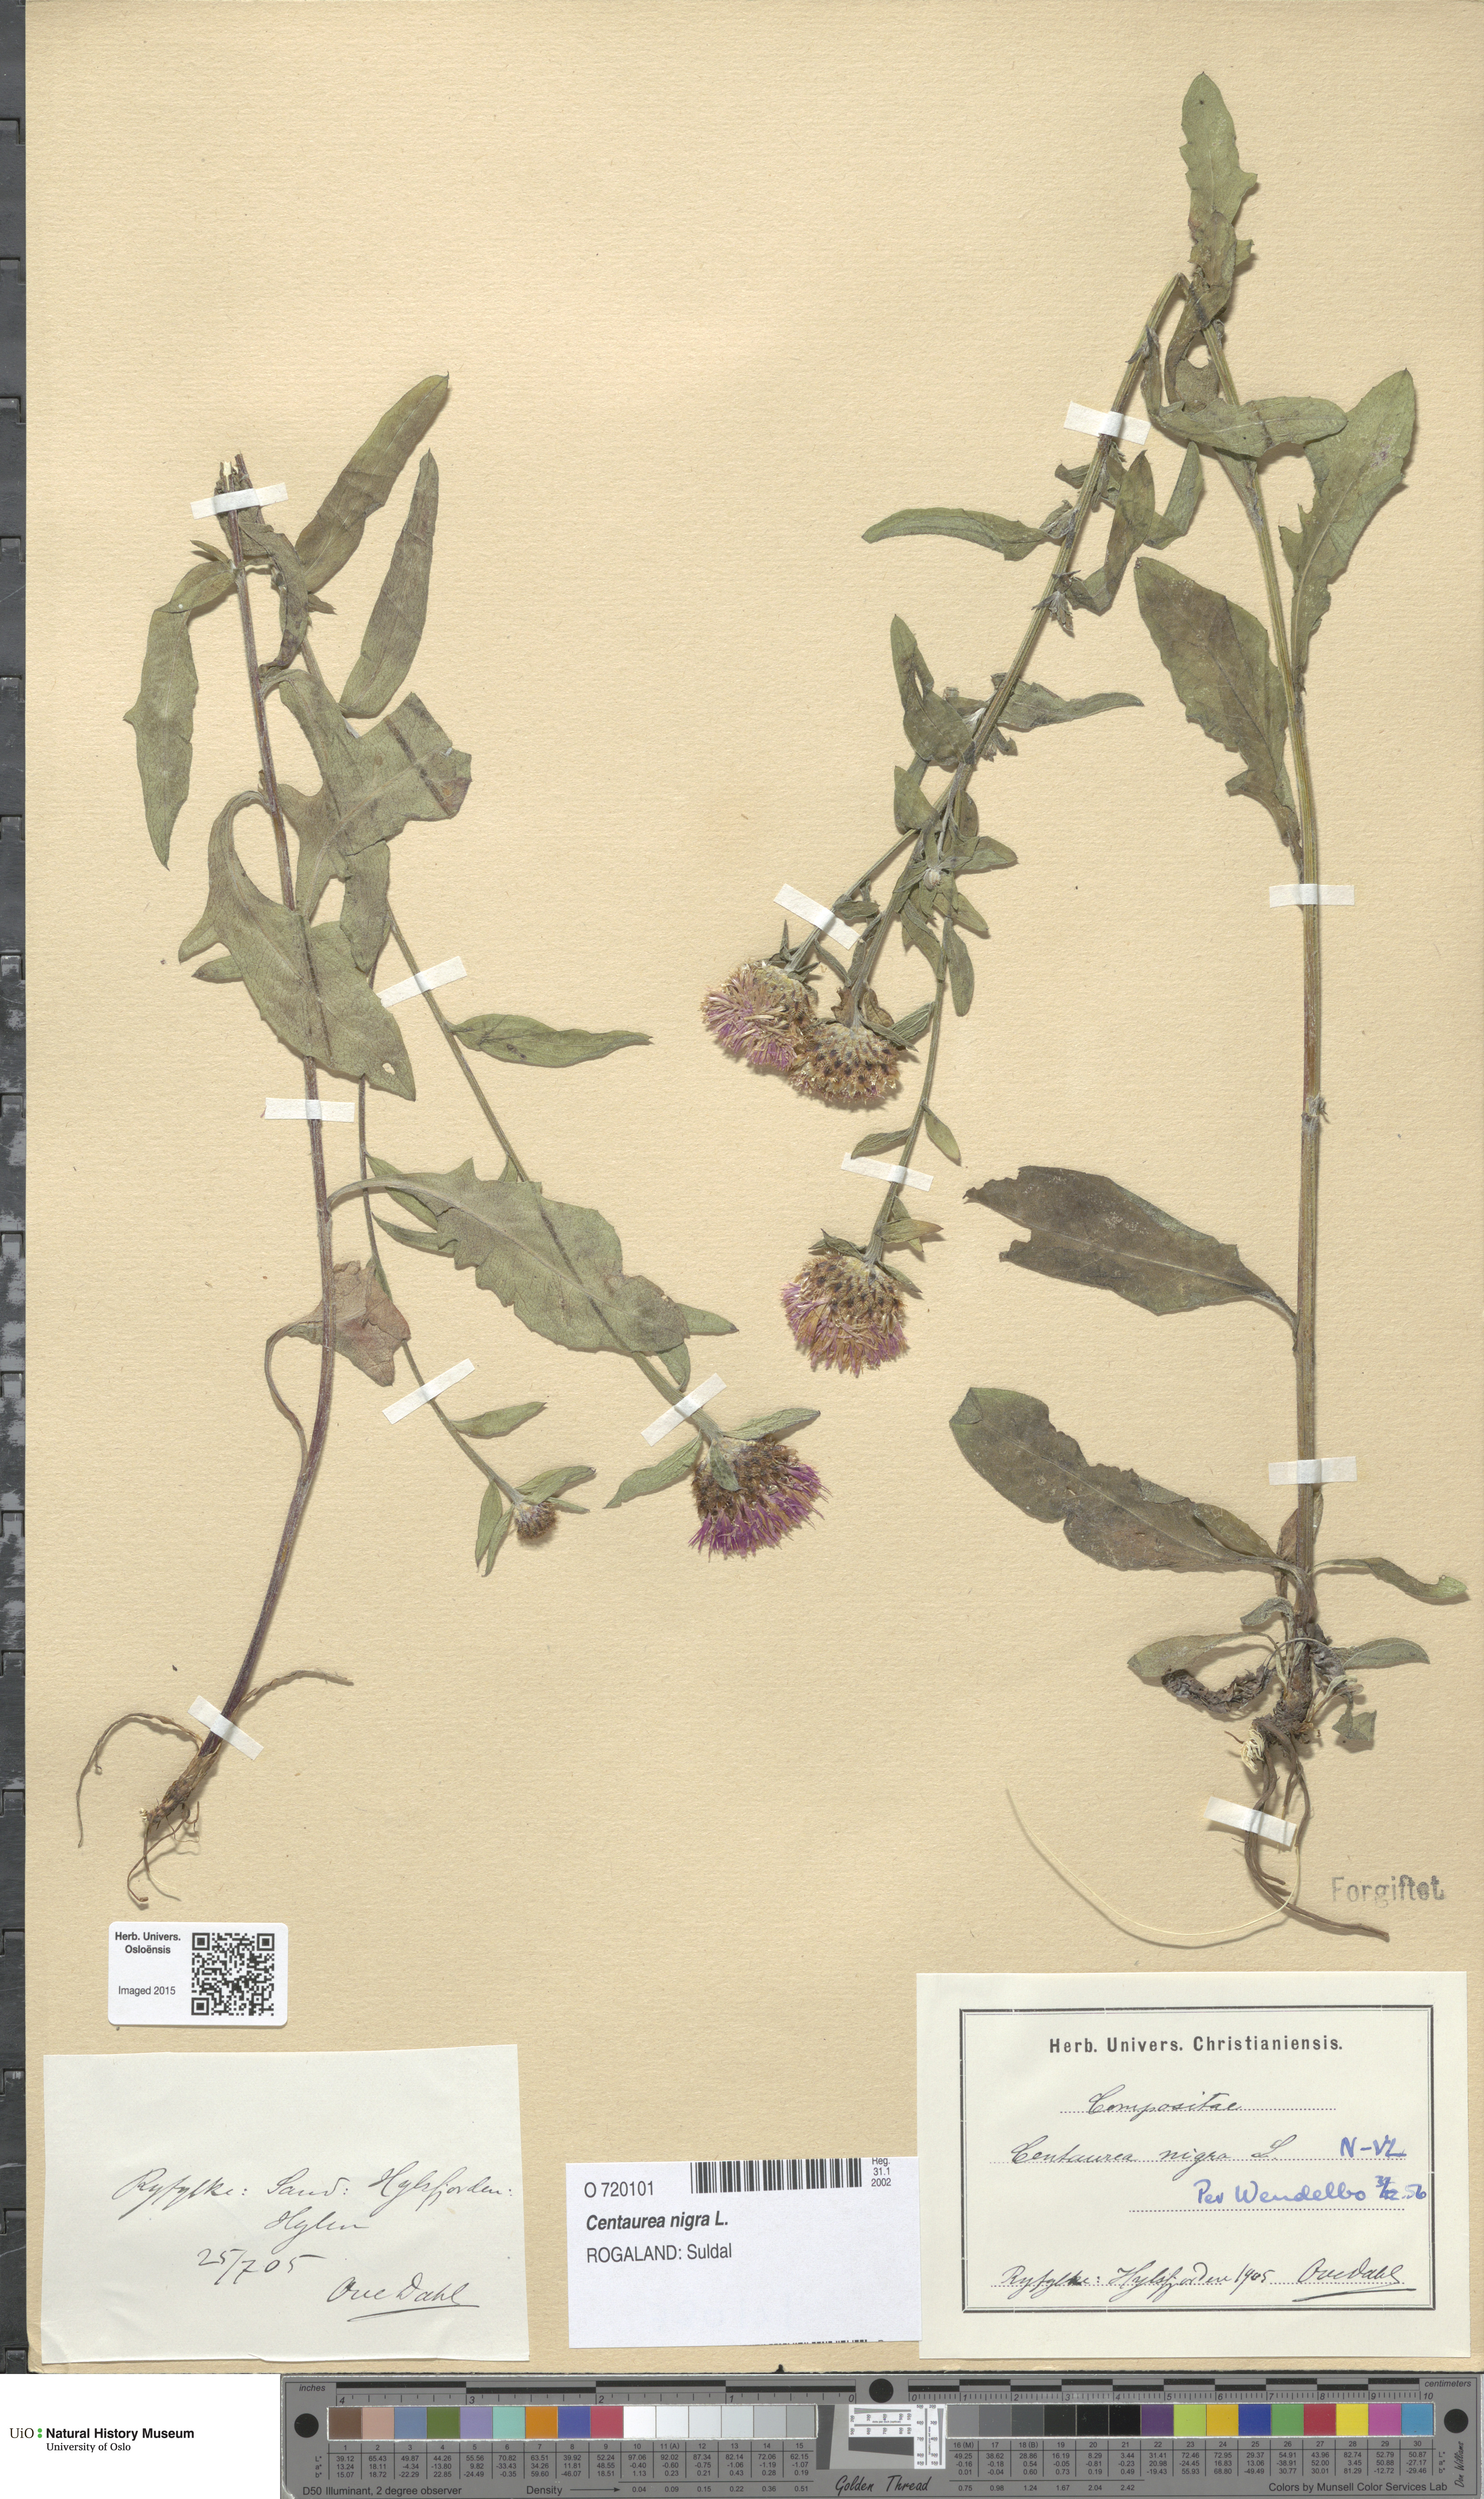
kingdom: Plantae
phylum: Tracheophyta
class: Magnoliopsida
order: Asterales
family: Asteraceae
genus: Centaurea
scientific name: Centaurea nigra
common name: Lesser knapweed
